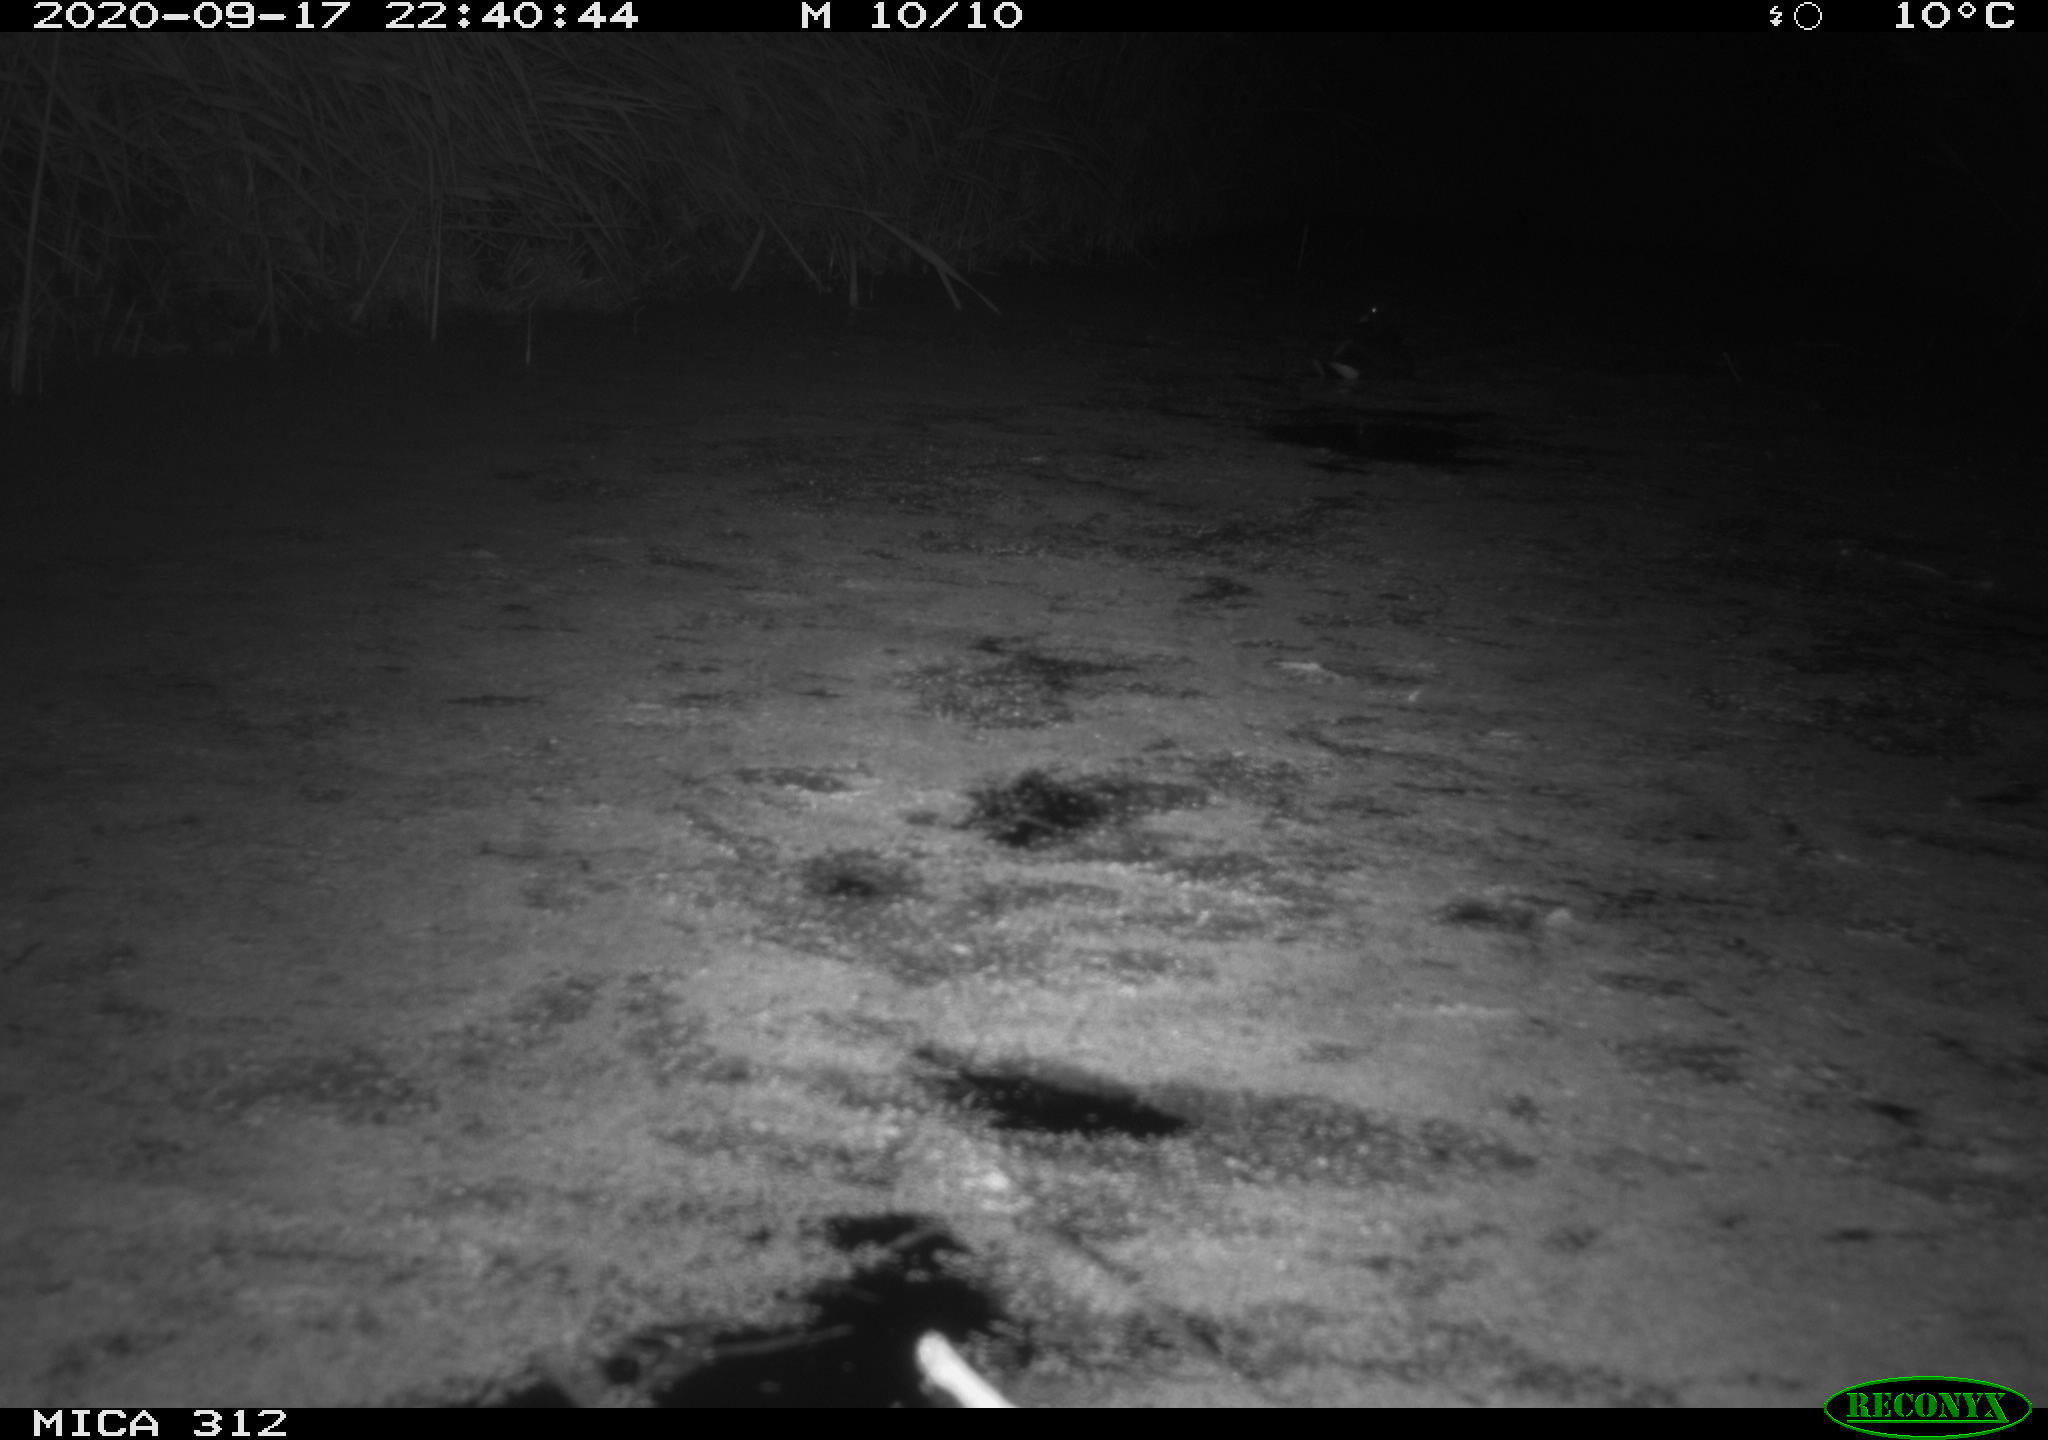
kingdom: Animalia
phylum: Chordata
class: Aves
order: Gruiformes
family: Rallidae
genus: Gallinula
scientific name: Gallinula chloropus
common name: Common moorhen
